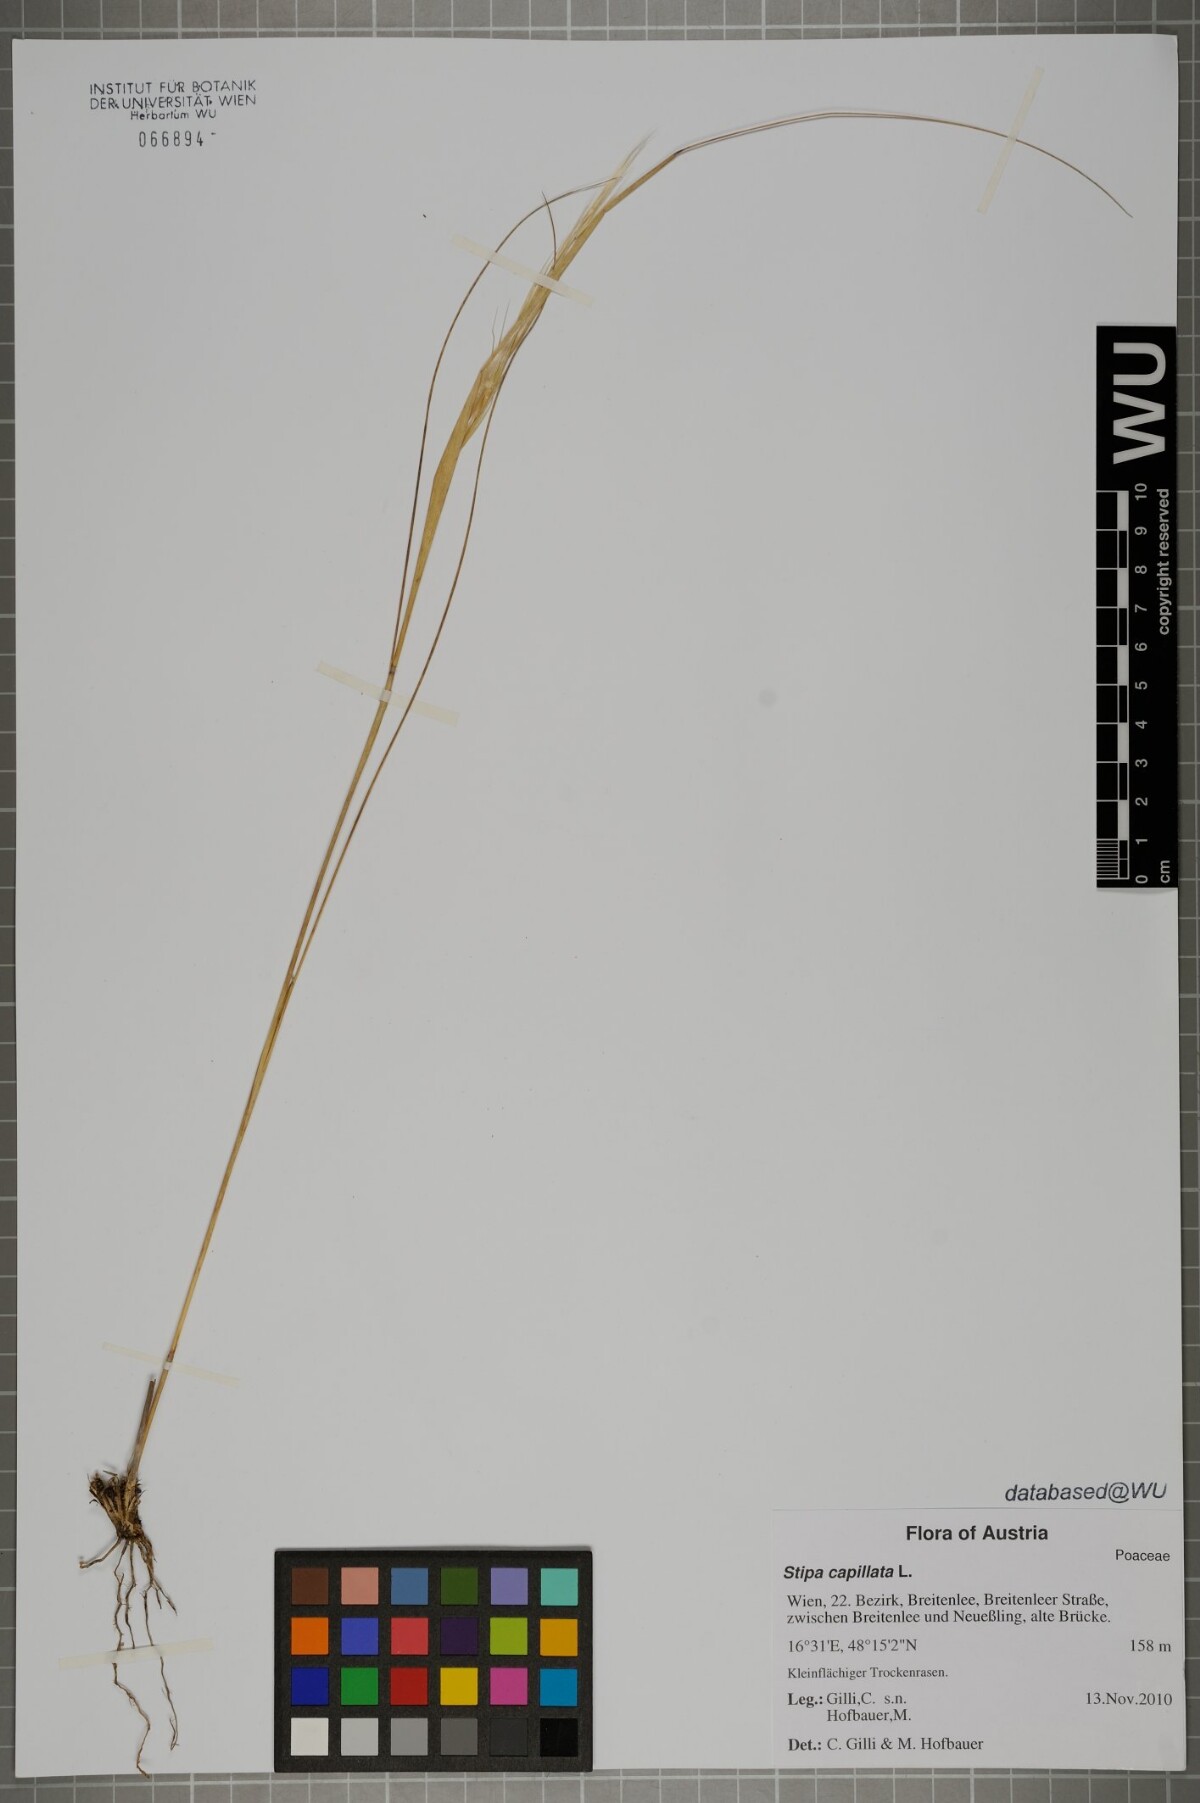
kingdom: Plantae
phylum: Tracheophyta
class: Liliopsida
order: Poales
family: Poaceae
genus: Stipa
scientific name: Stipa capillata
